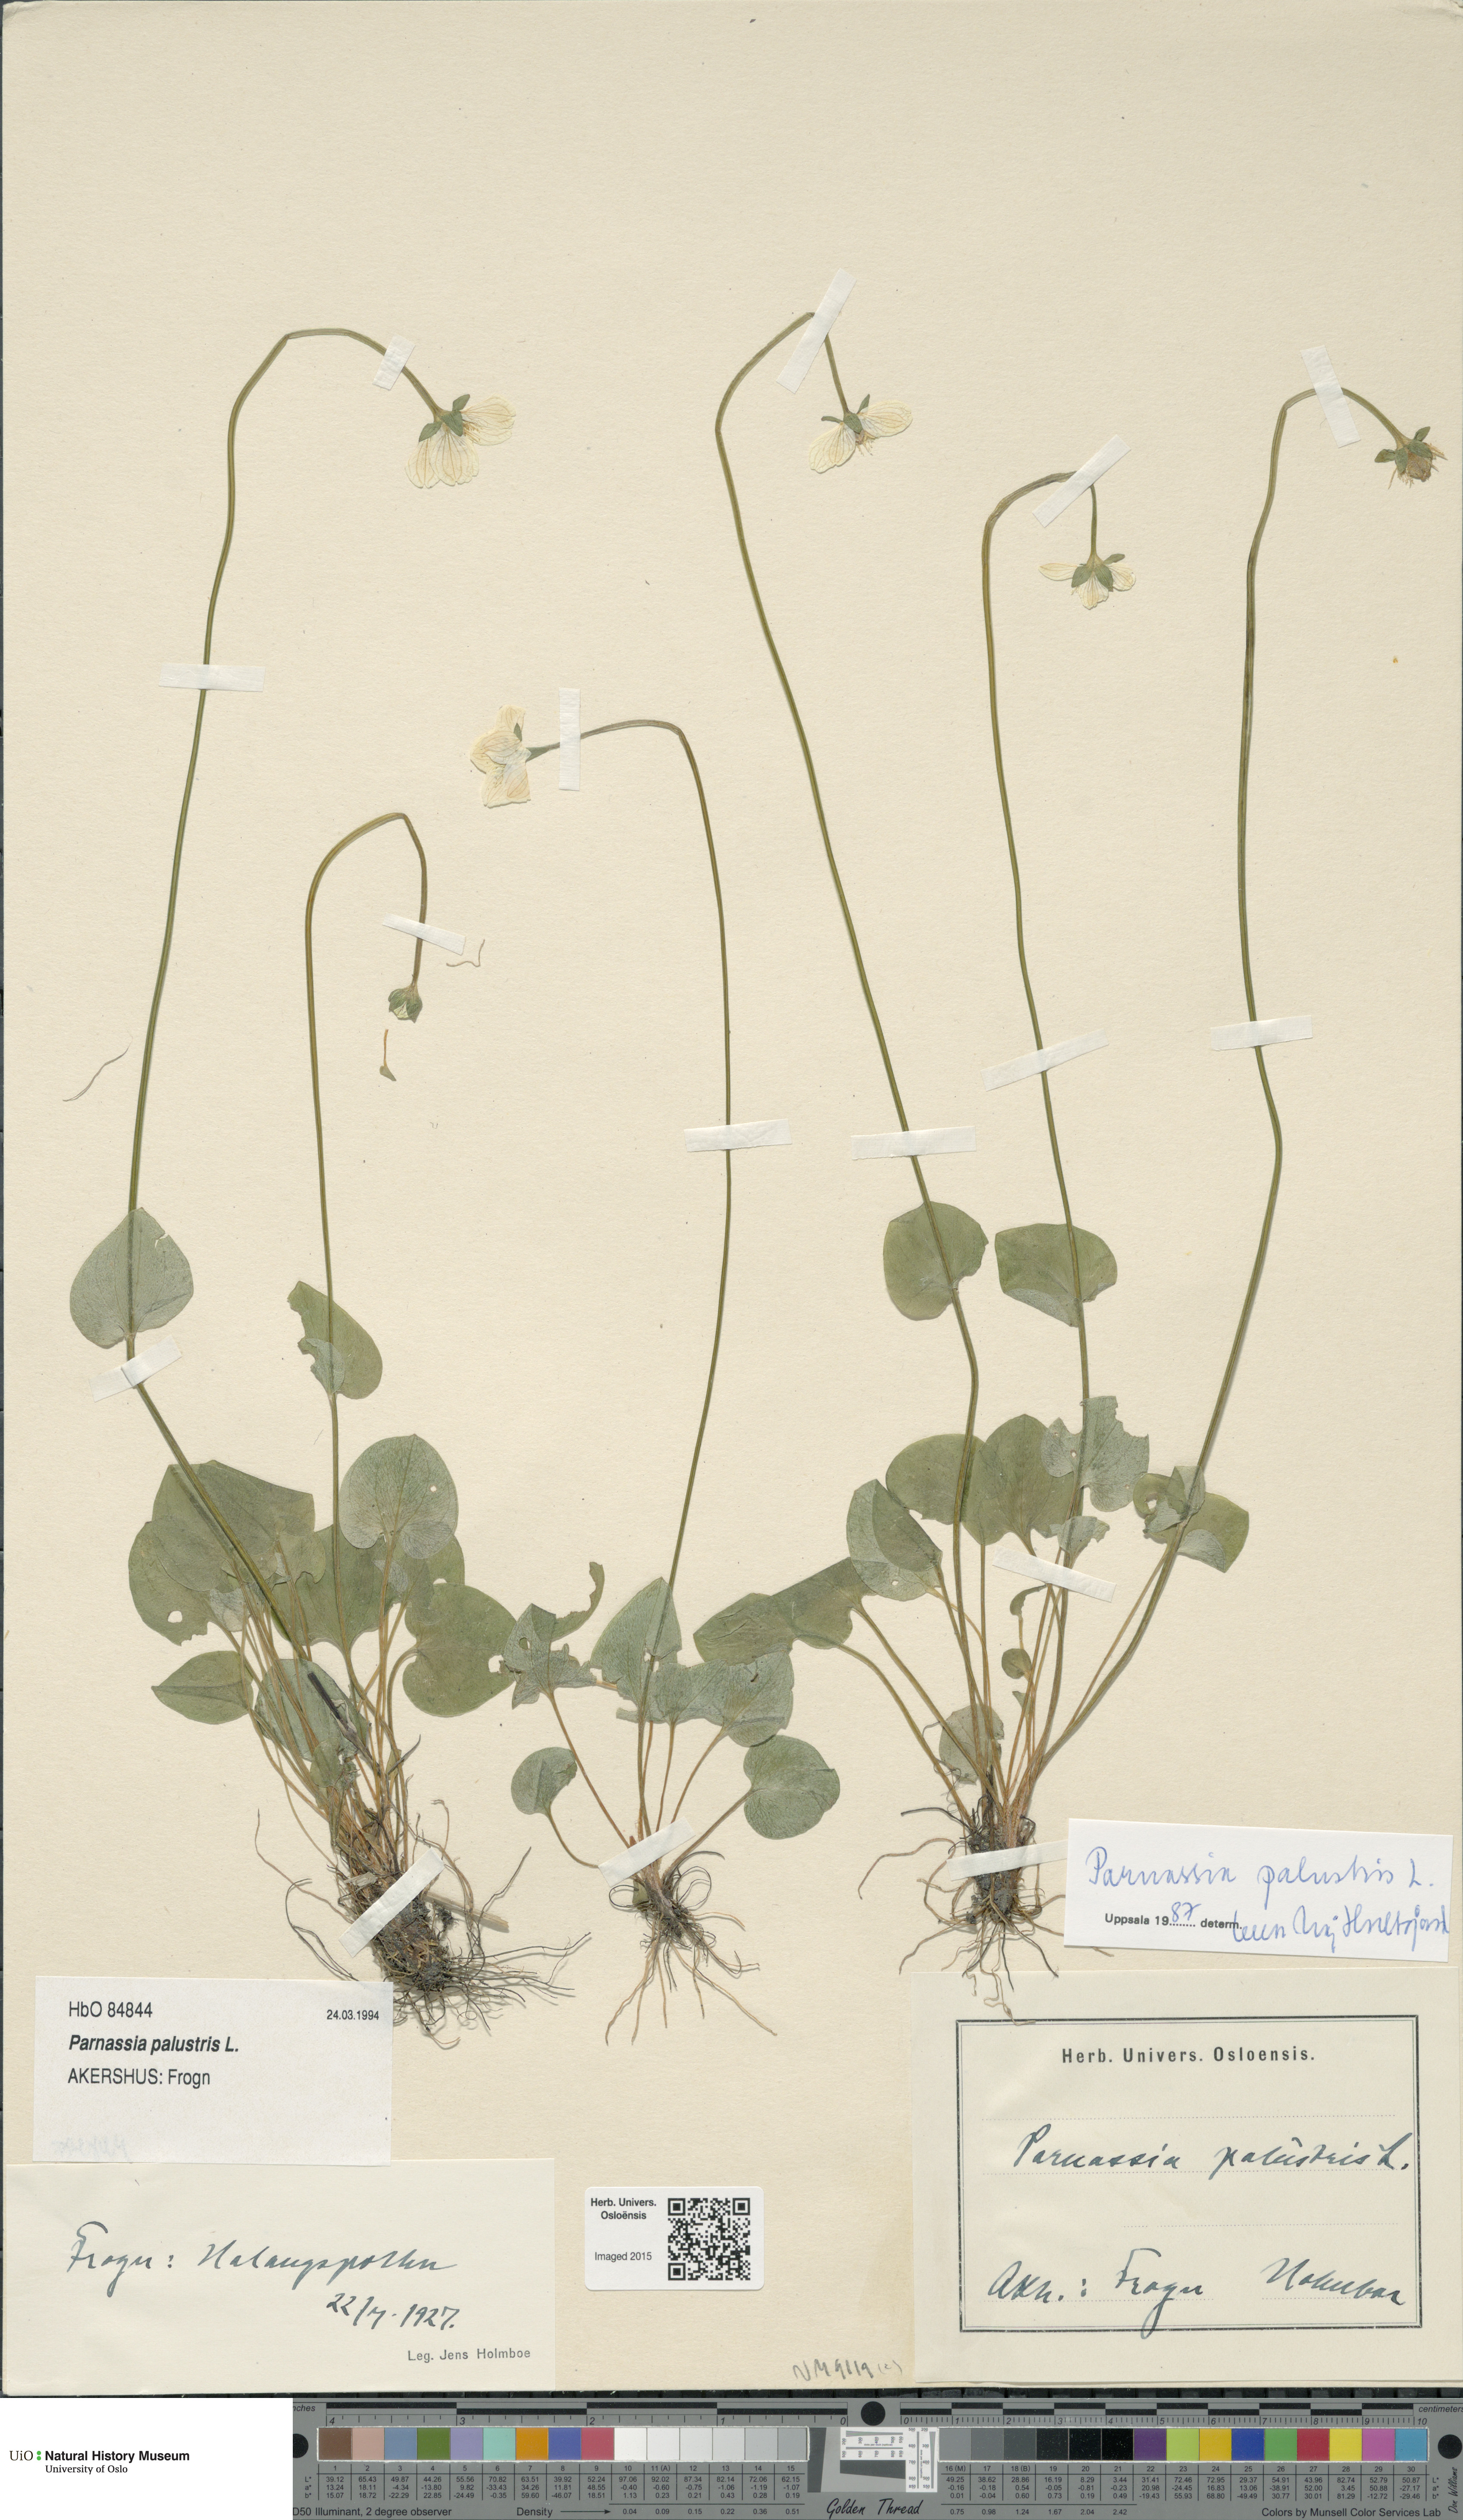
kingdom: Plantae
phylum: Tracheophyta
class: Magnoliopsida
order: Celastrales
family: Parnassiaceae
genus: Parnassia
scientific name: Parnassia palustris
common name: Grass-of-parnassus
